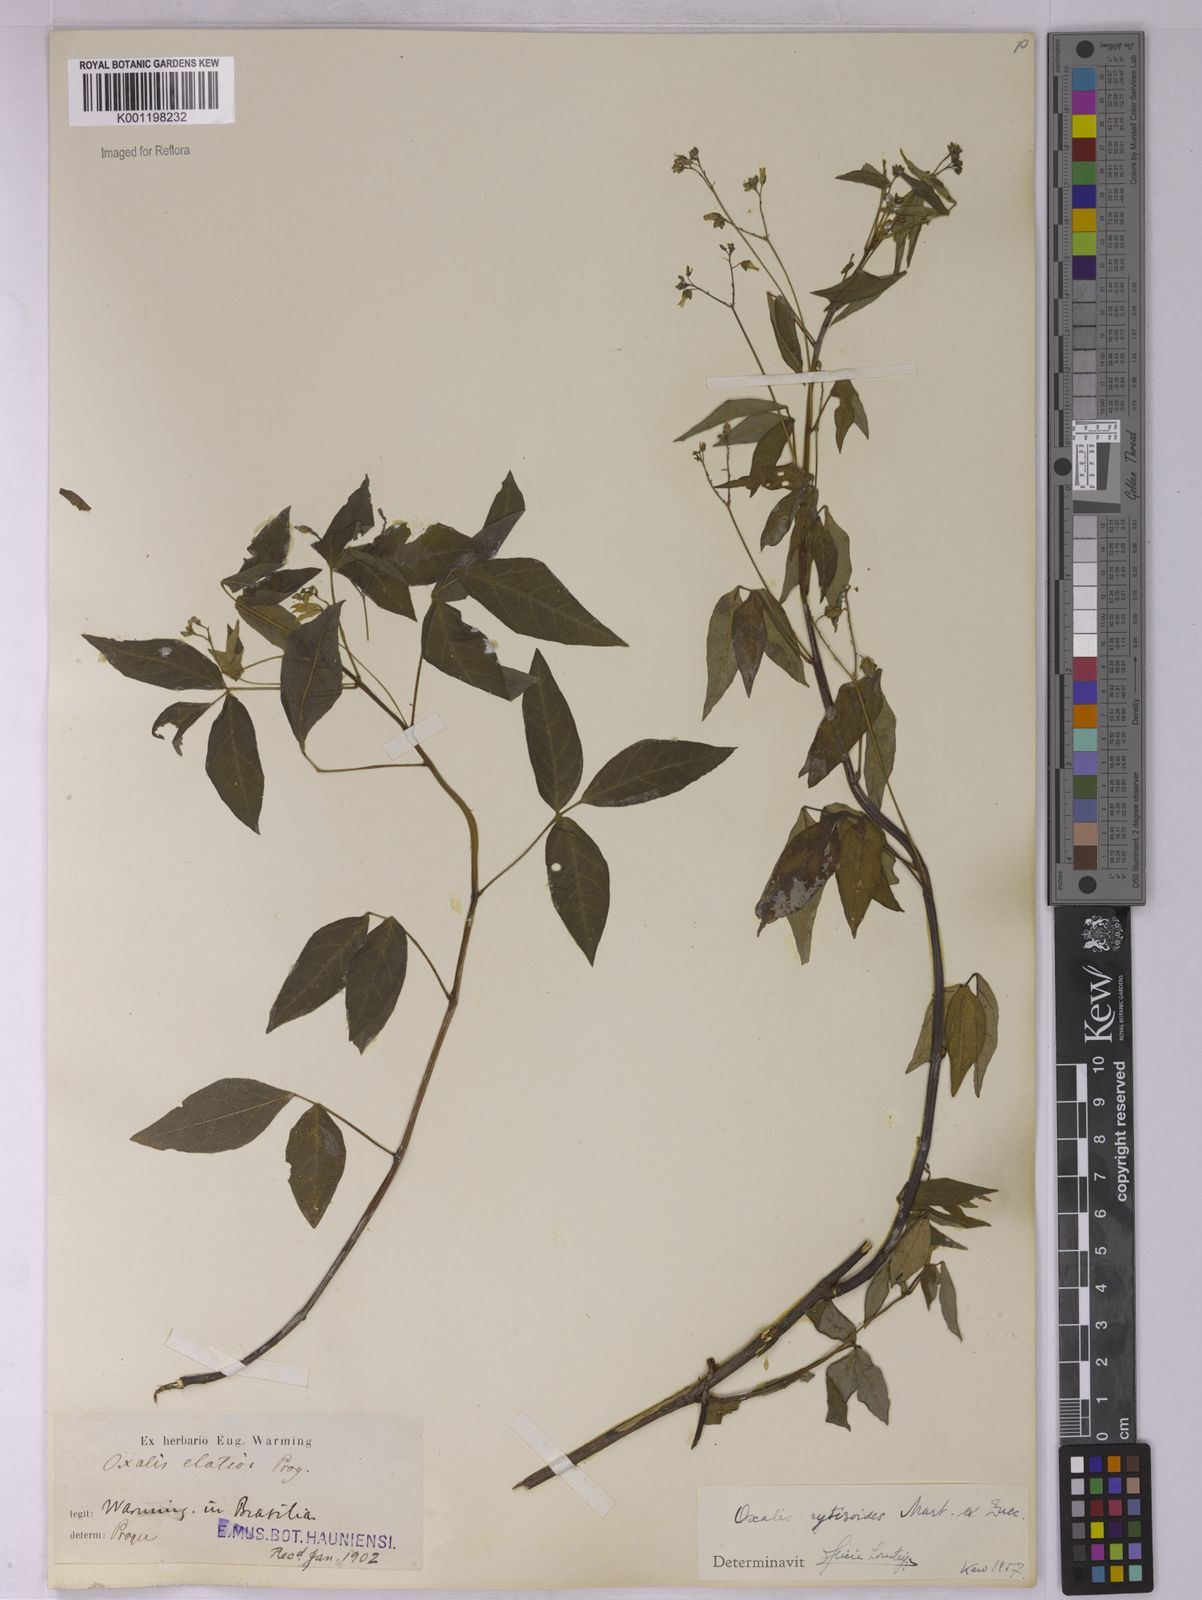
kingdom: Plantae
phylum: Tracheophyta
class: Magnoliopsida
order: Oxalidales
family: Oxalidaceae
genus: Oxalis
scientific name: Oxalis cytisoides
